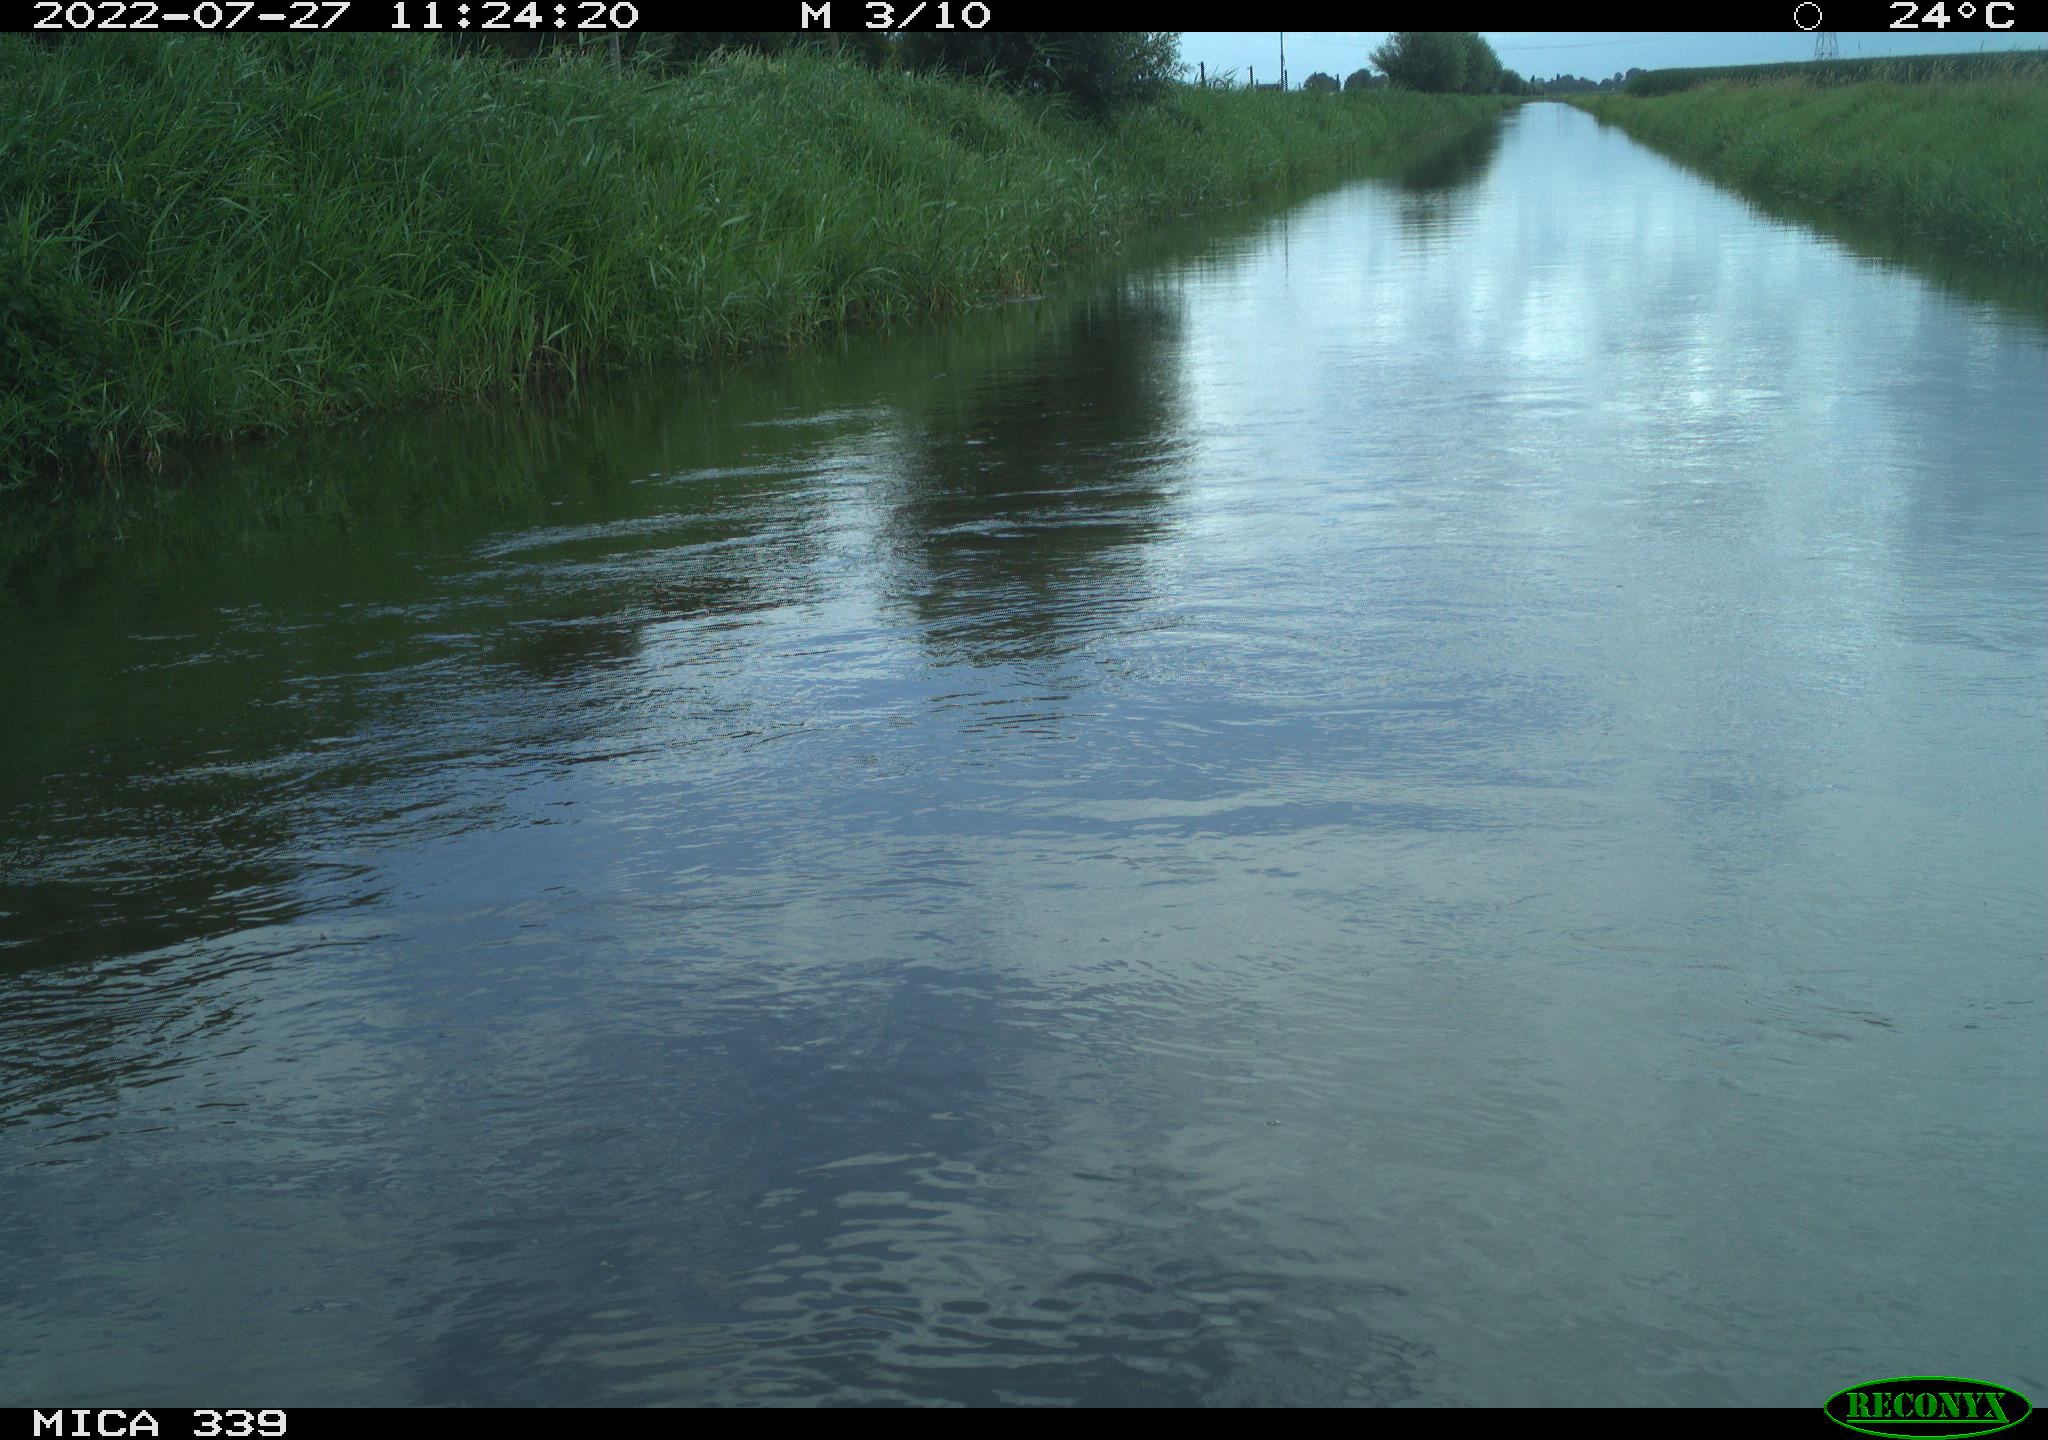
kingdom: Animalia
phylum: Chordata
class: Aves
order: Pelecaniformes
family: Ardeidae
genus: Ardea
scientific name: Ardea
